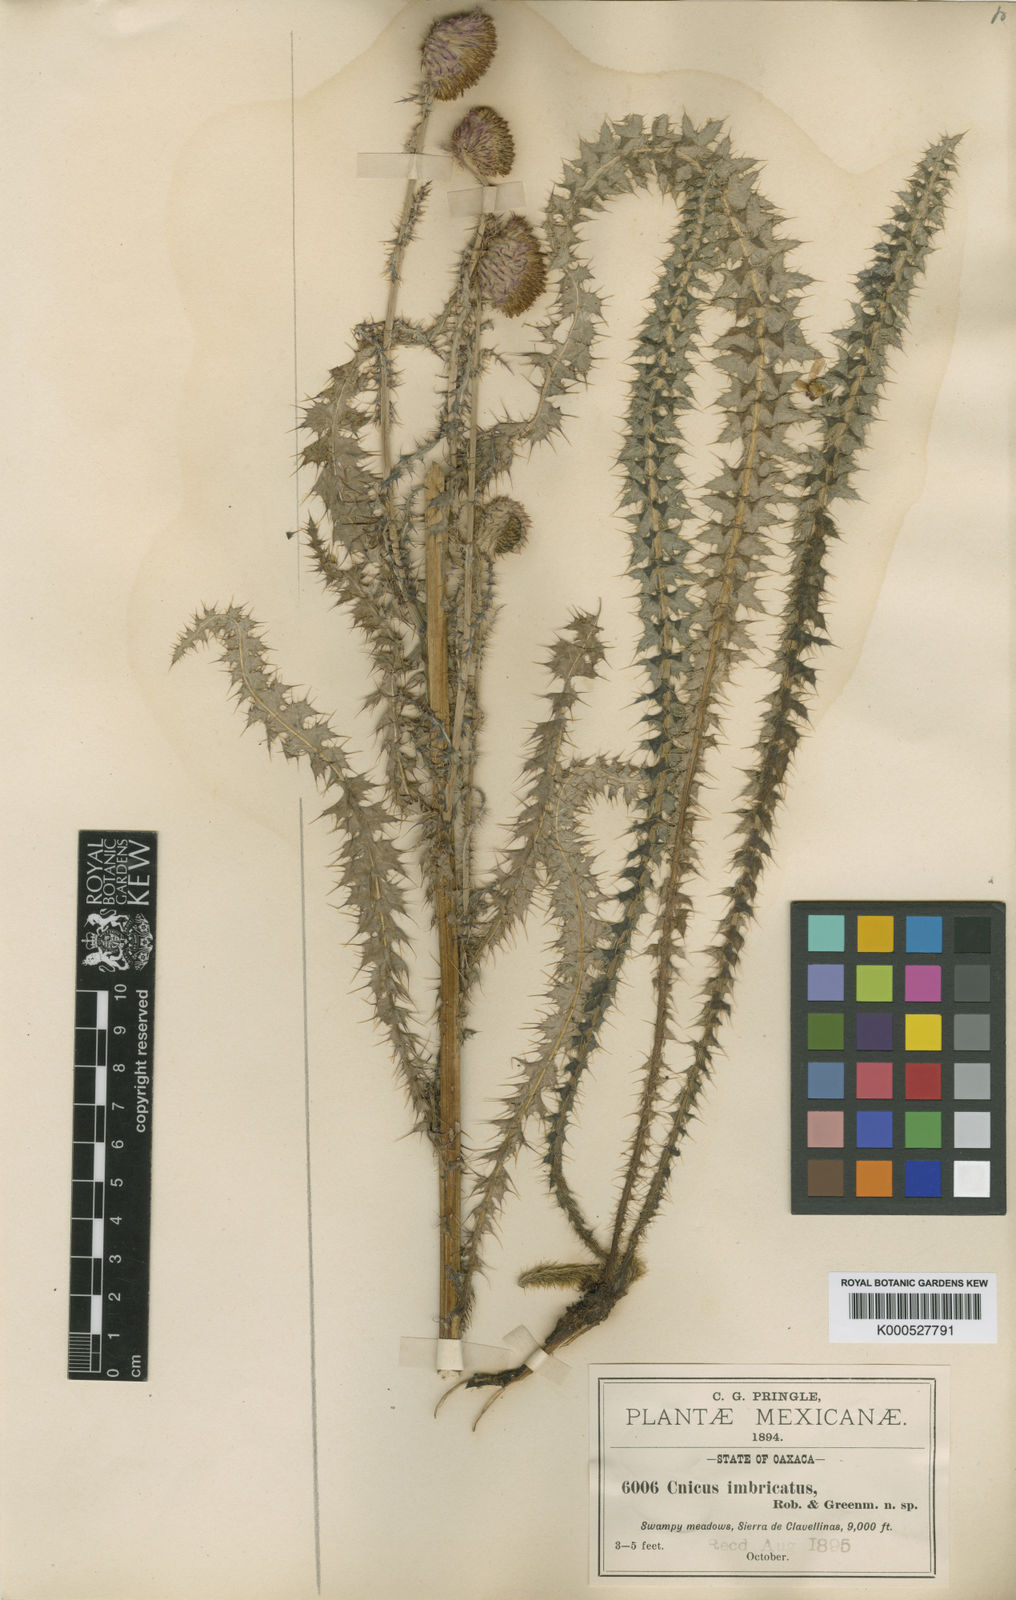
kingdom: Plantae
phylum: Tracheophyta
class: Magnoliopsida
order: Asterales
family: Asteraceae
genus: Cirsium
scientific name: Cirsium imbricatum
